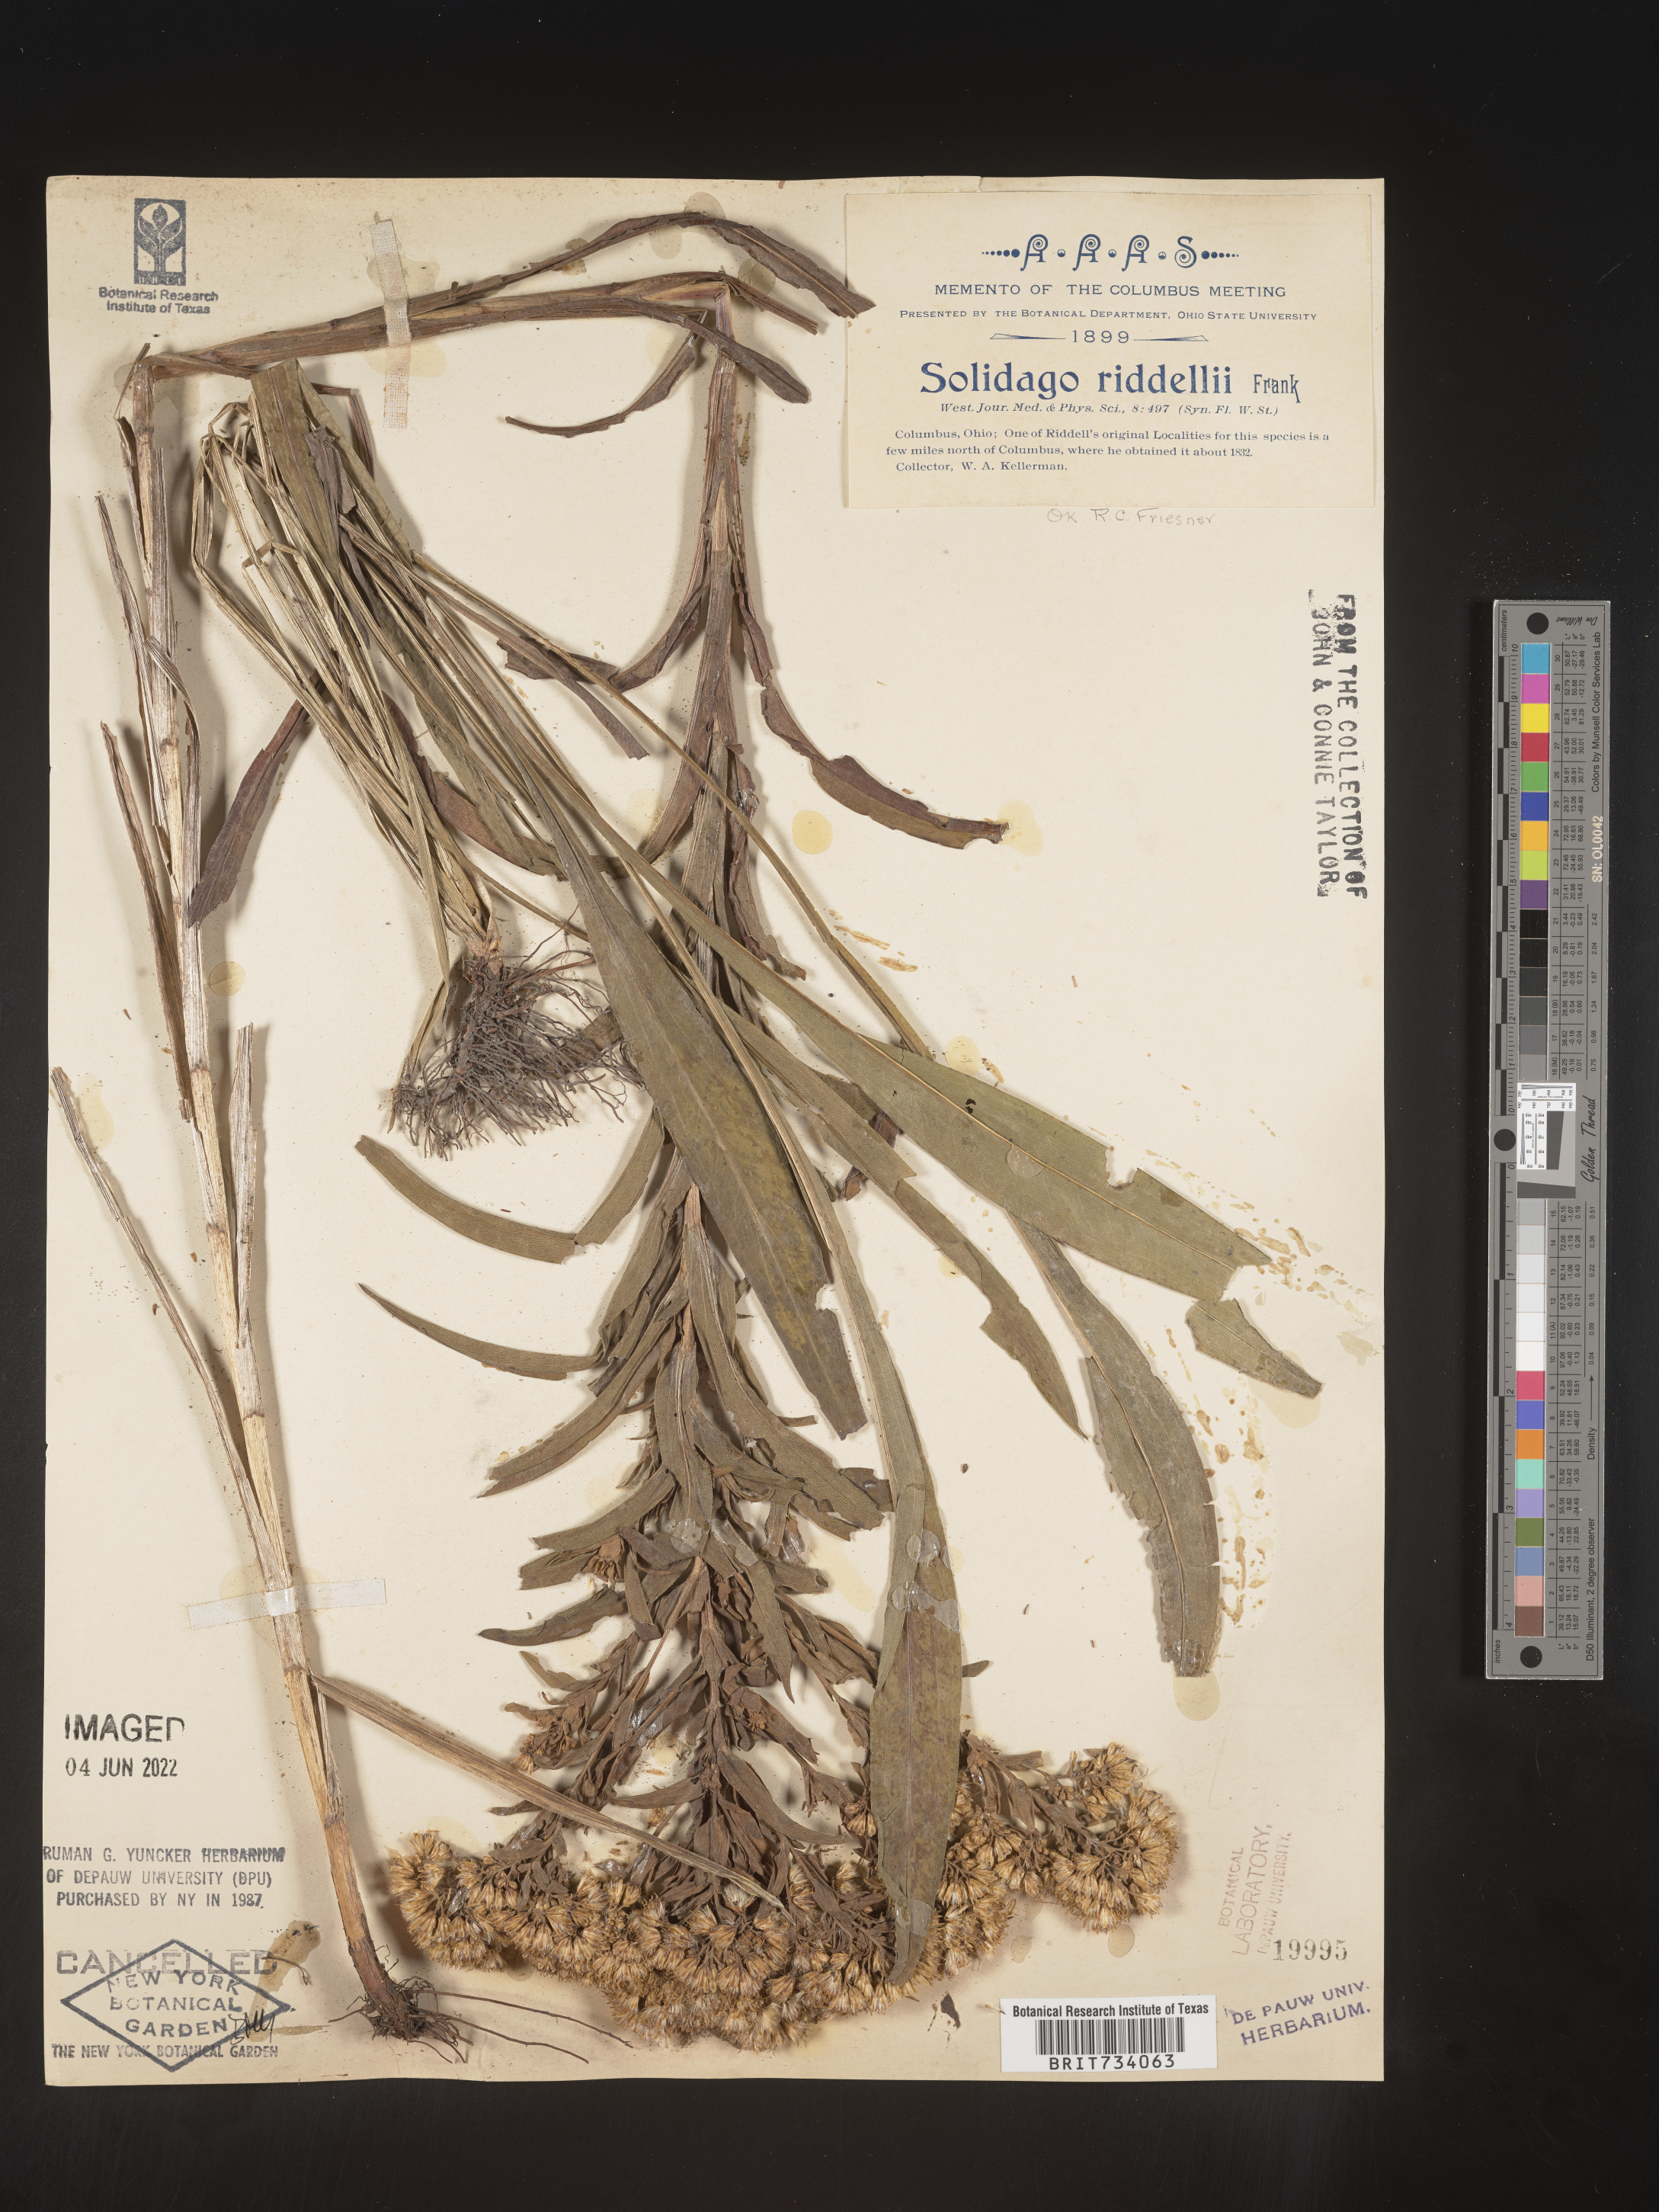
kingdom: Plantae
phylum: Tracheophyta
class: Magnoliopsida
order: Asterales
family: Asteraceae
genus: Solidago
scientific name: Solidago riddellii
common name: Riddell's goldenrod
